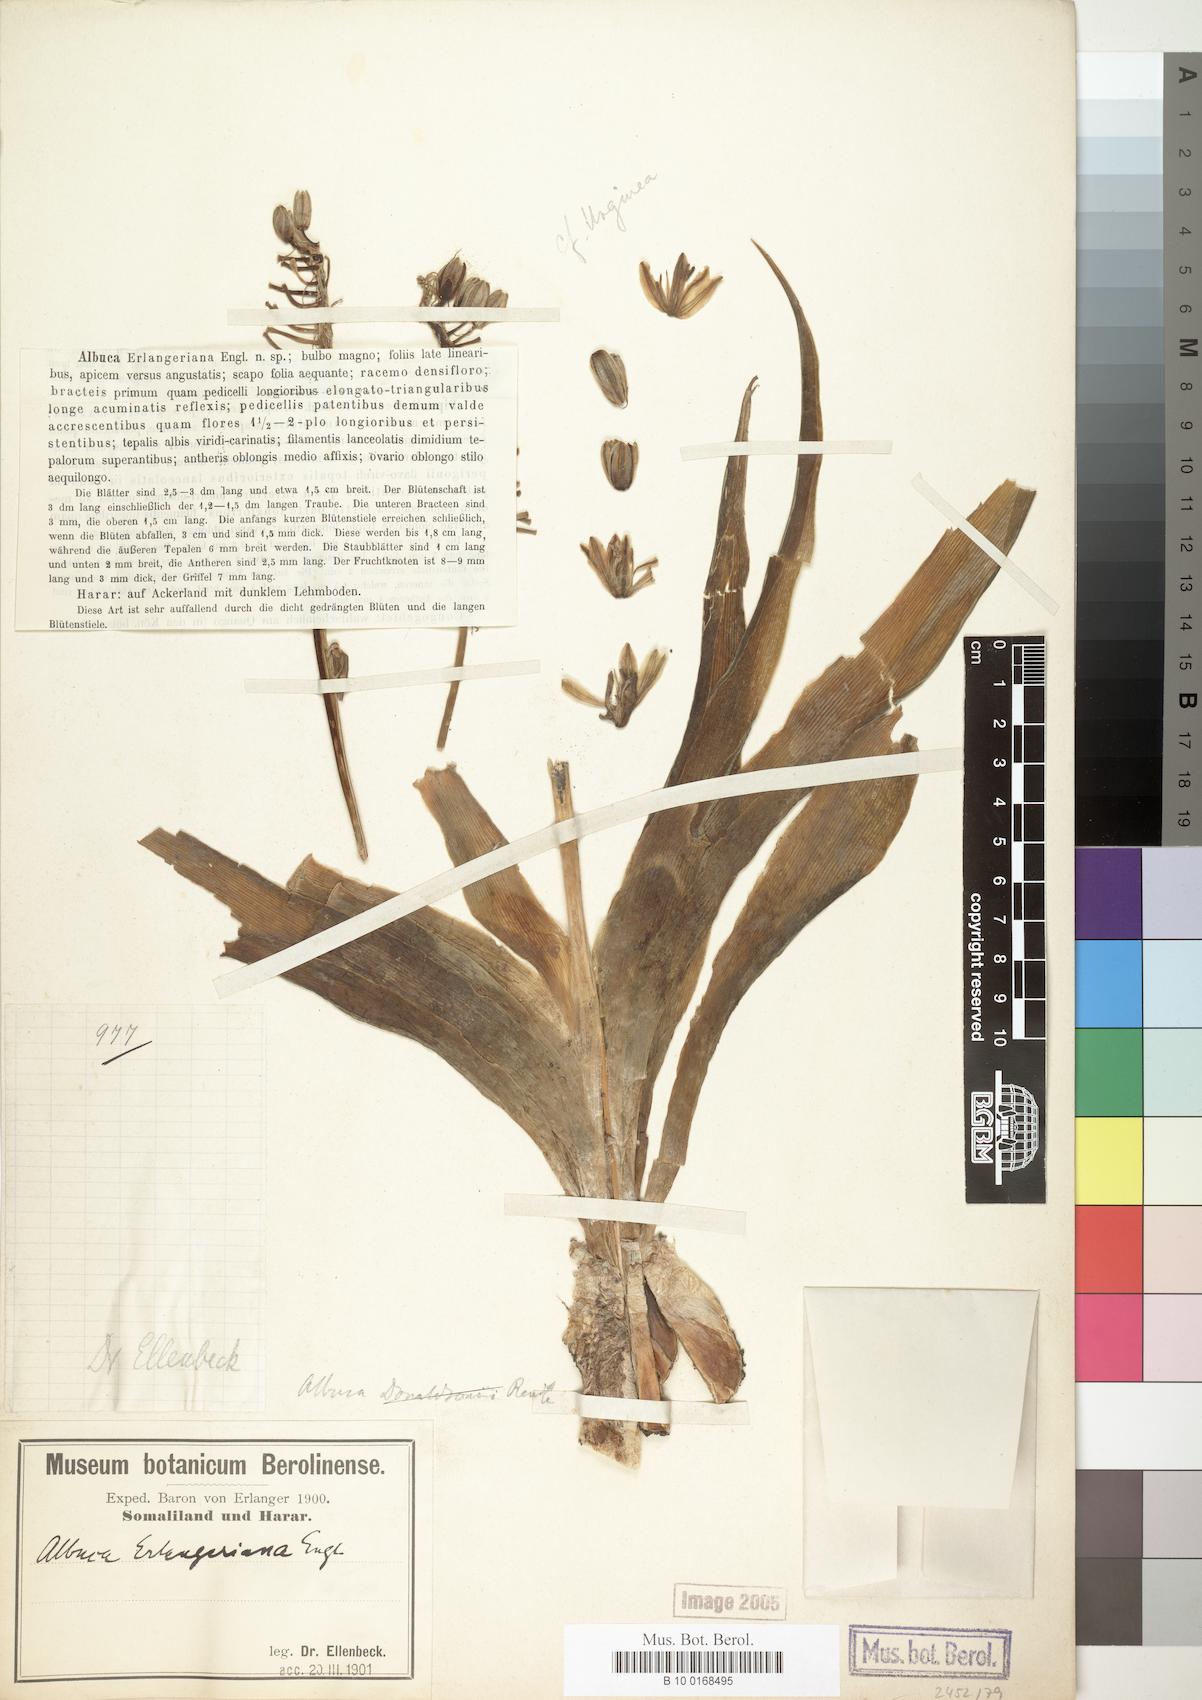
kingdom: Plantae
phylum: Tracheophyta
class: Liliopsida
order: Asparagales
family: Asparagaceae
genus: Albuca
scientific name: Albuca abyssinica
